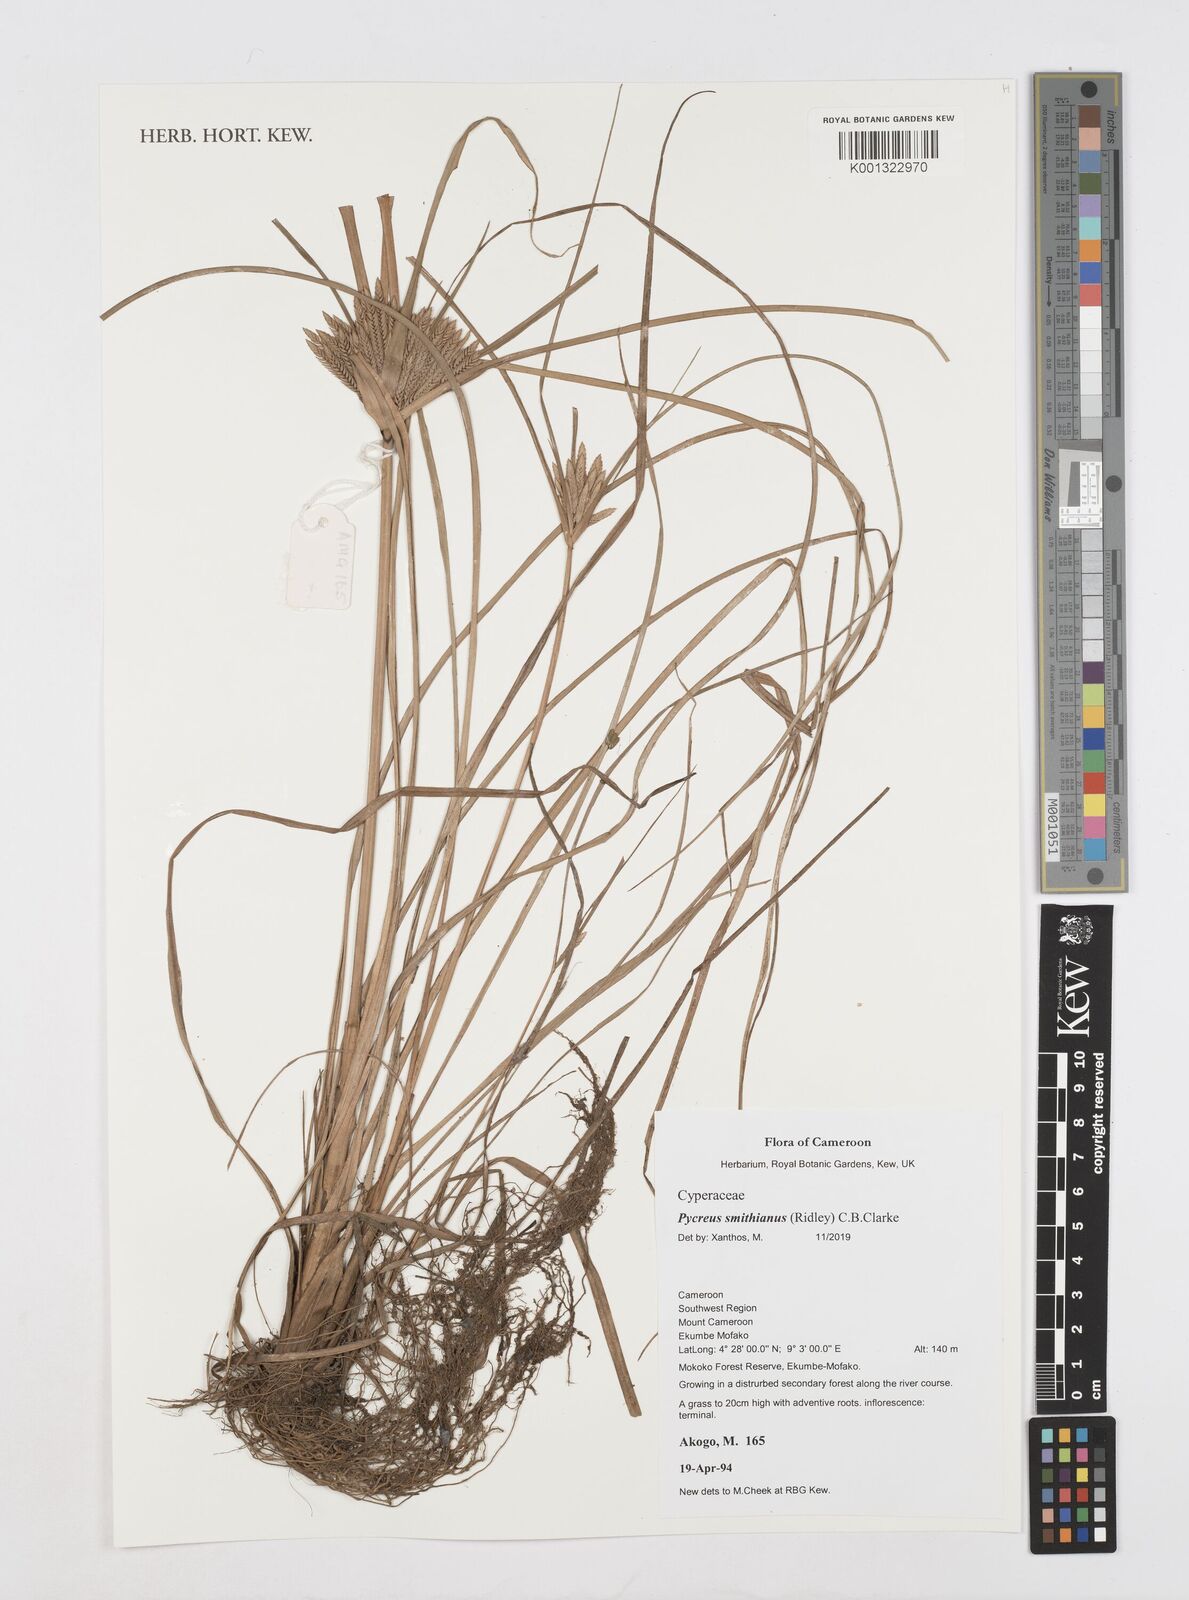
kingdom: Plantae
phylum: Tracheophyta
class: Liliopsida
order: Poales
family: Cyperaceae
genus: Cyperus
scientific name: Cyperus smithianus
